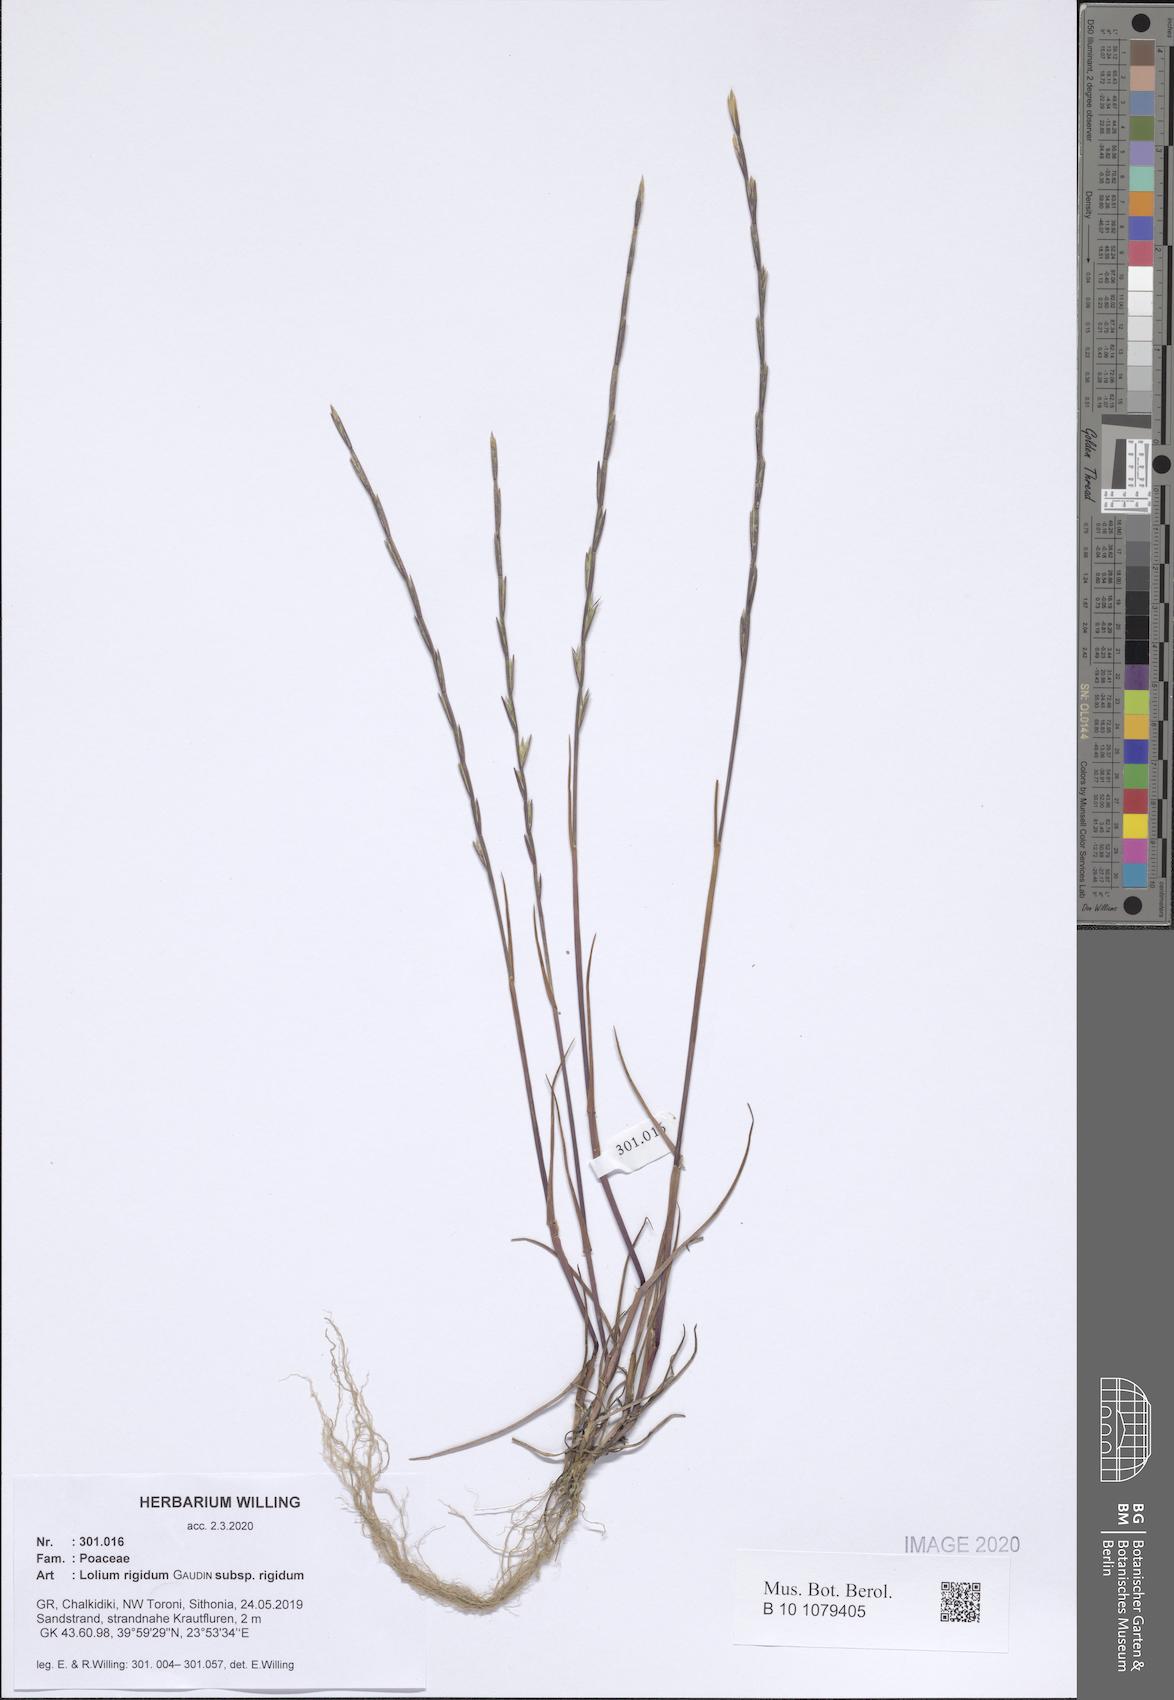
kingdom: Plantae
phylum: Tracheophyta
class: Liliopsida
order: Poales
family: Poaceae
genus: Lolium
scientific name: Lolium rigidum
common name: Wimmera ryegrass
